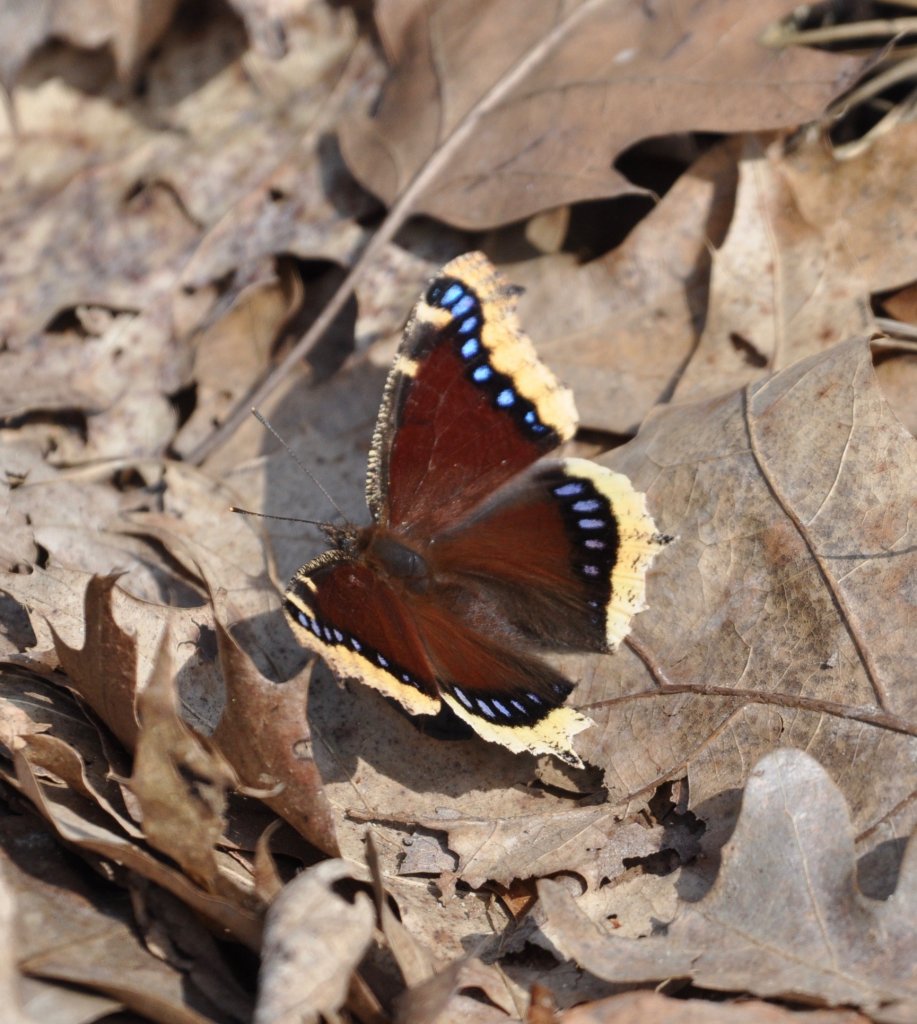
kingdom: Animalia
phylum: Arthropoda
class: Insecta
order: Lepidoptera
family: Nymphalidae
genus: Nymphalis
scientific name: Nymphalis antiopa
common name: Mourning Cloak
